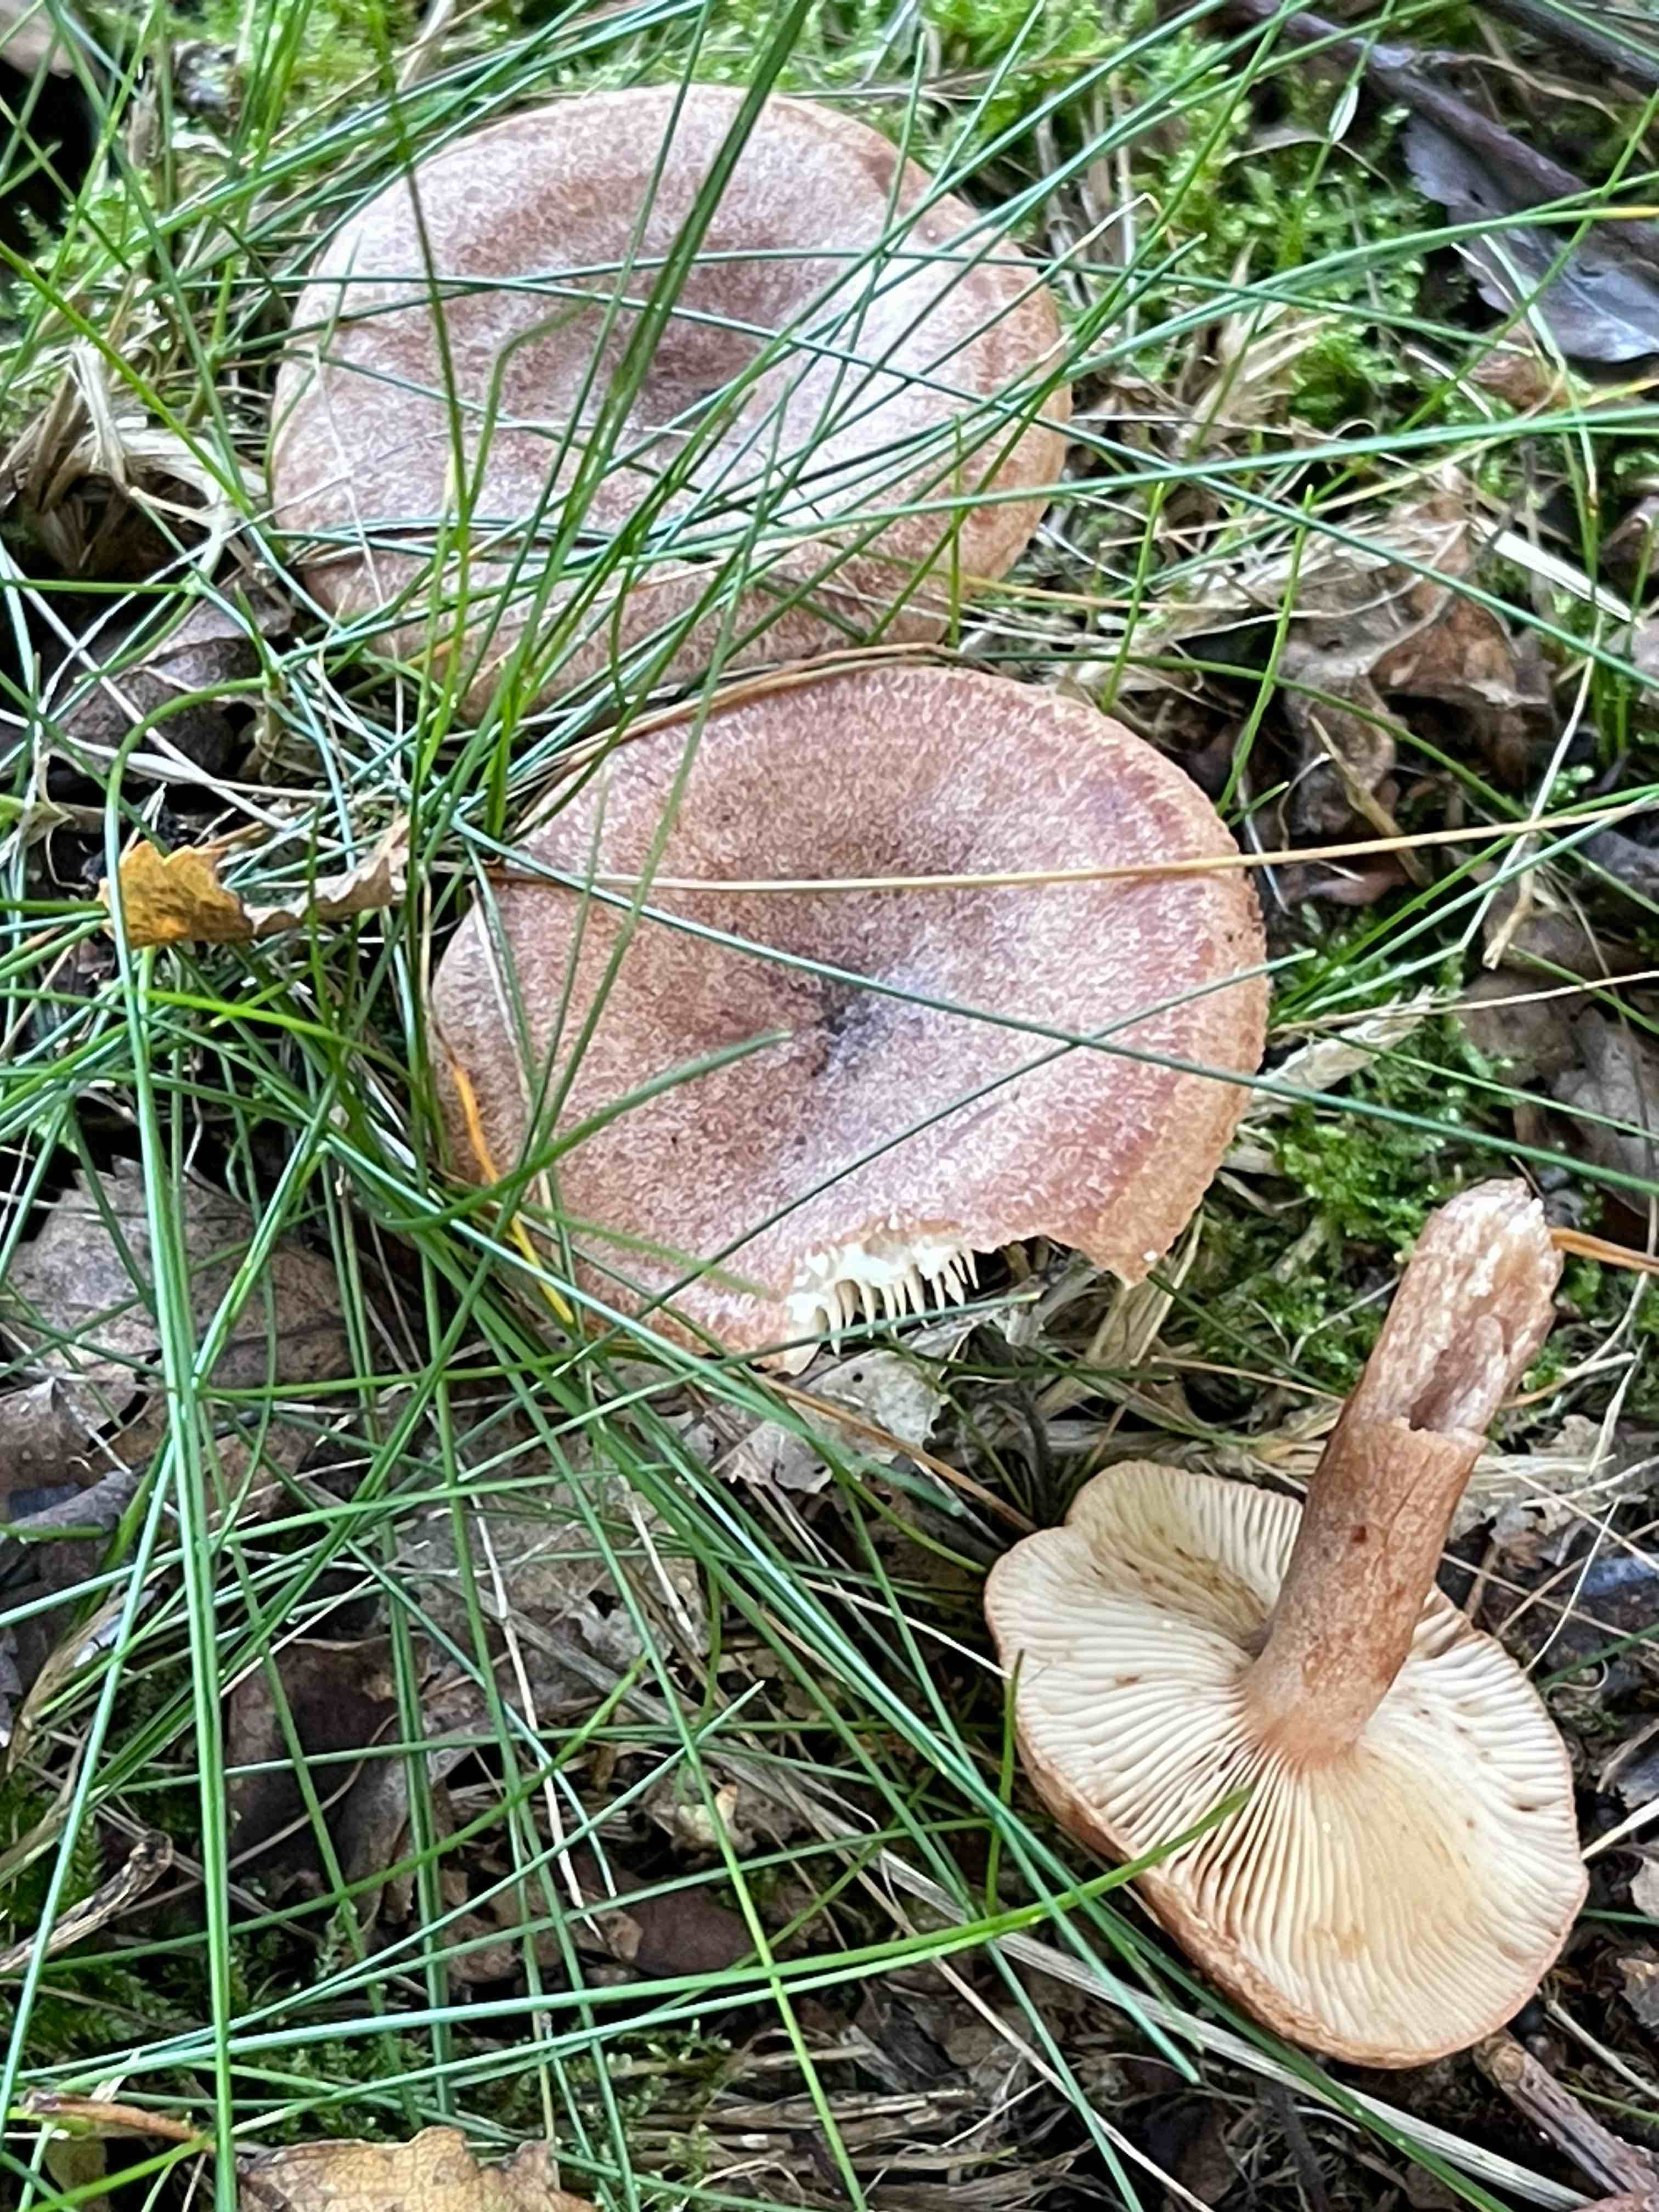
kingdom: Fungi
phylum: Basidiomycota
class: Agaricomycetes
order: Russulales
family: Russulaceae
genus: Lactarius
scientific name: Lactarius quietus
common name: ege-mælkehat
